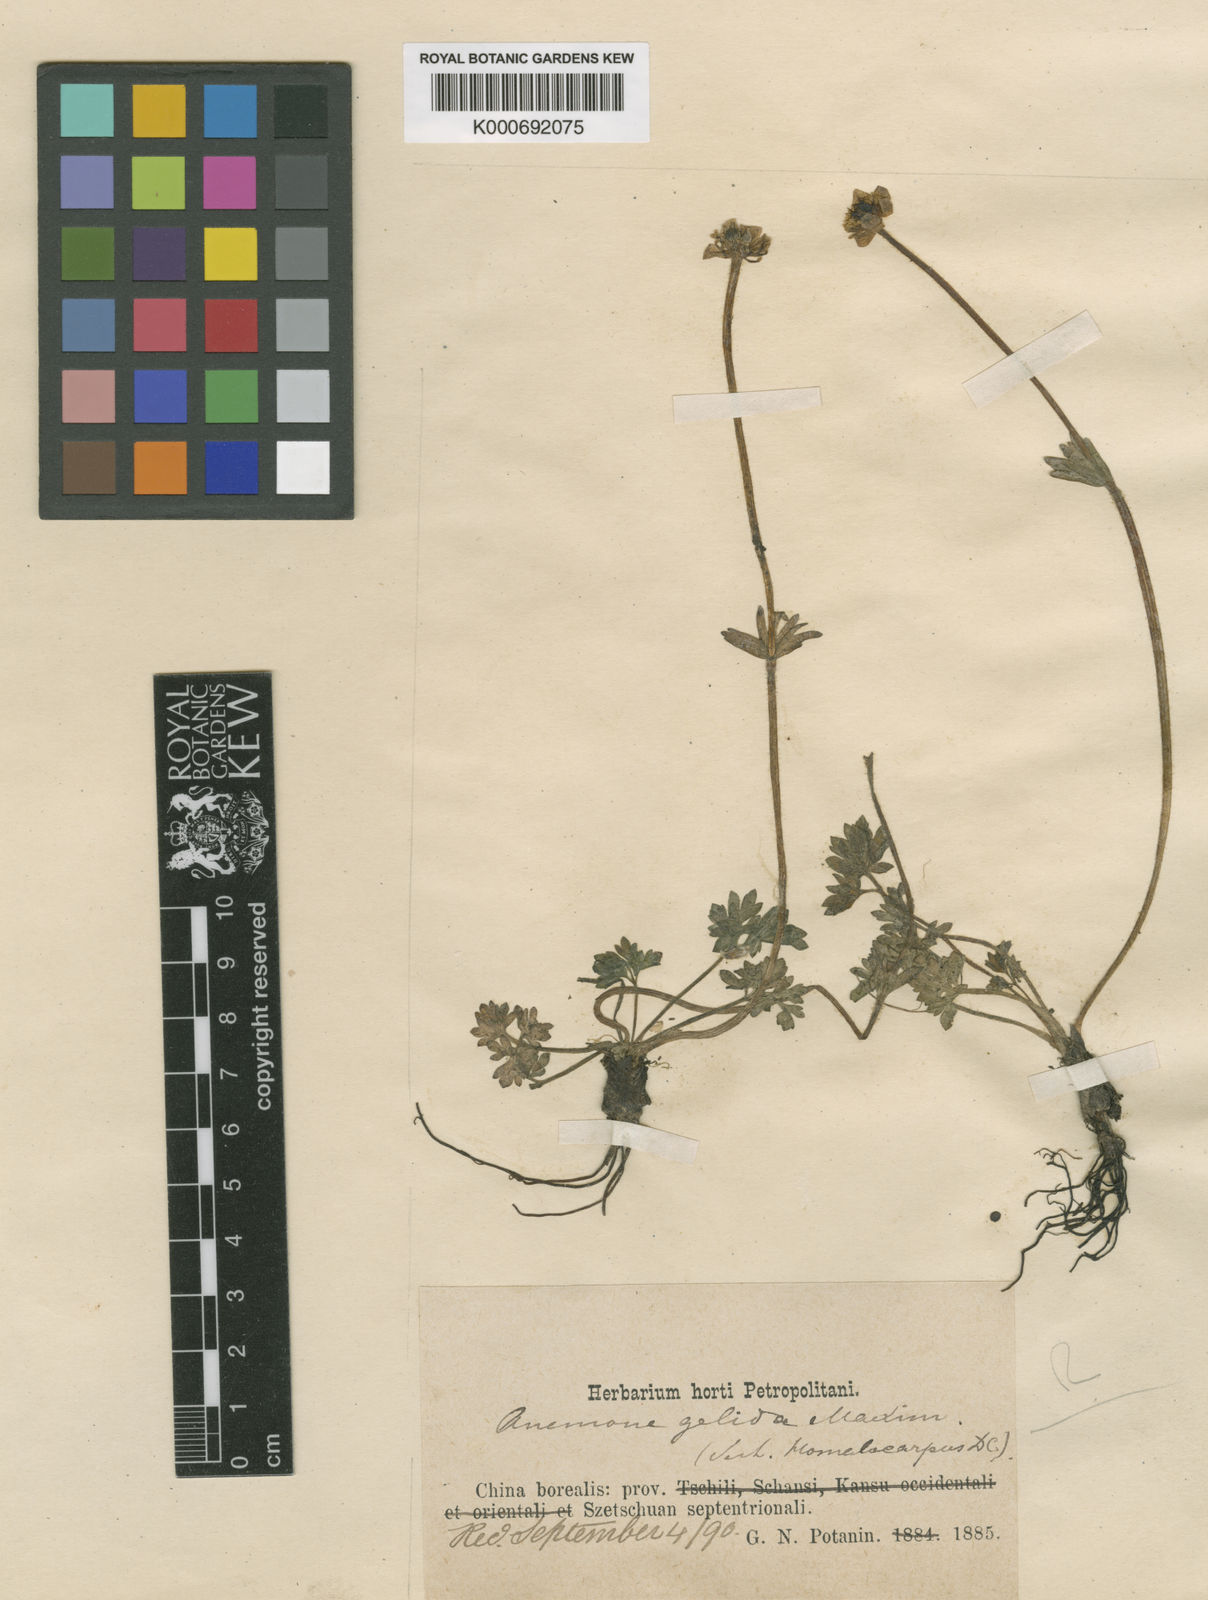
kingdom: Plantae
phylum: Tracheophyta
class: Magnoliopsida
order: Ranunculales
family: Ranunculaceae
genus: Anemone
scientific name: Anemone
